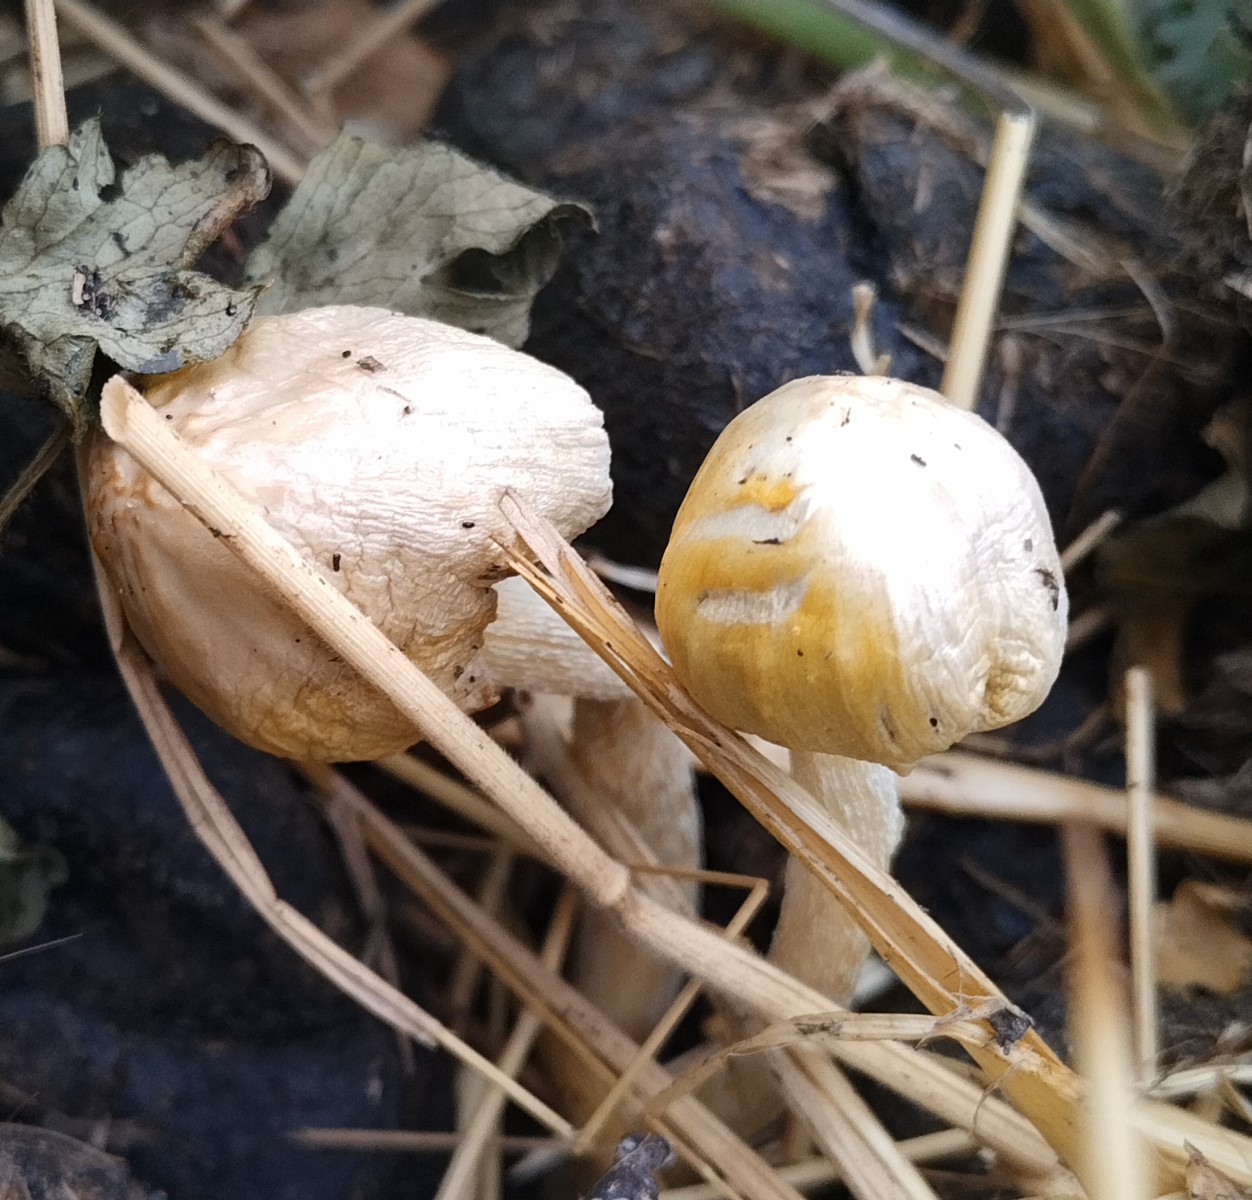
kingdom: Fungi
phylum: Basidiomycota
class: Agaricomycetes
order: Agaricales
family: Bolbitiaceae
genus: Bolbitius
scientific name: Bolbitius titubans
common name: almindelig gulhat
